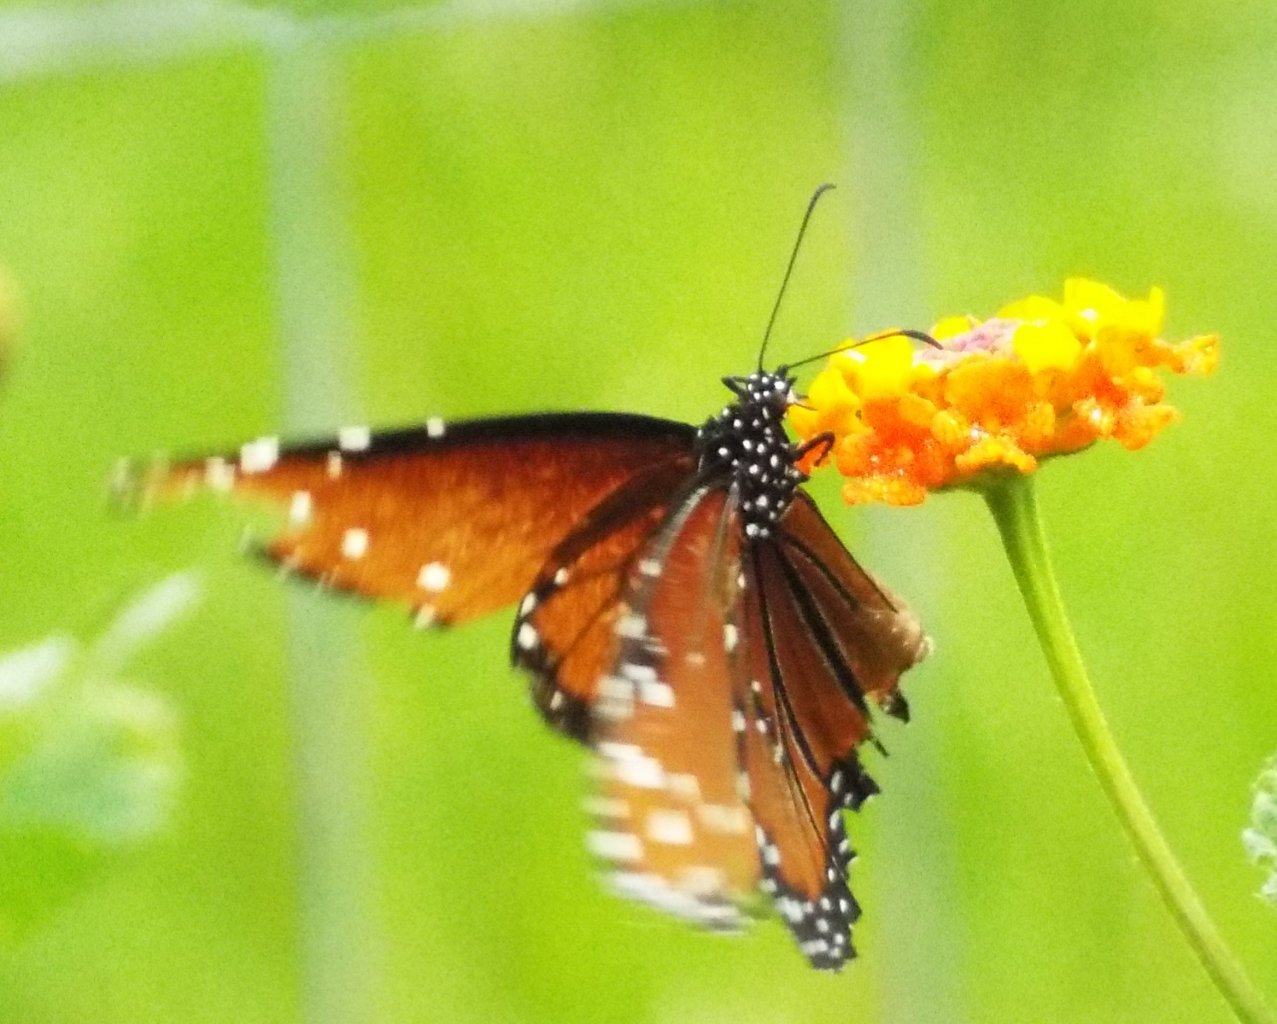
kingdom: Animalia
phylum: Arthropoda
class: Insecta
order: Lepidoptera
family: Nymphalidae
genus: Danaus
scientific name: Danaus gilippus
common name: Queen
